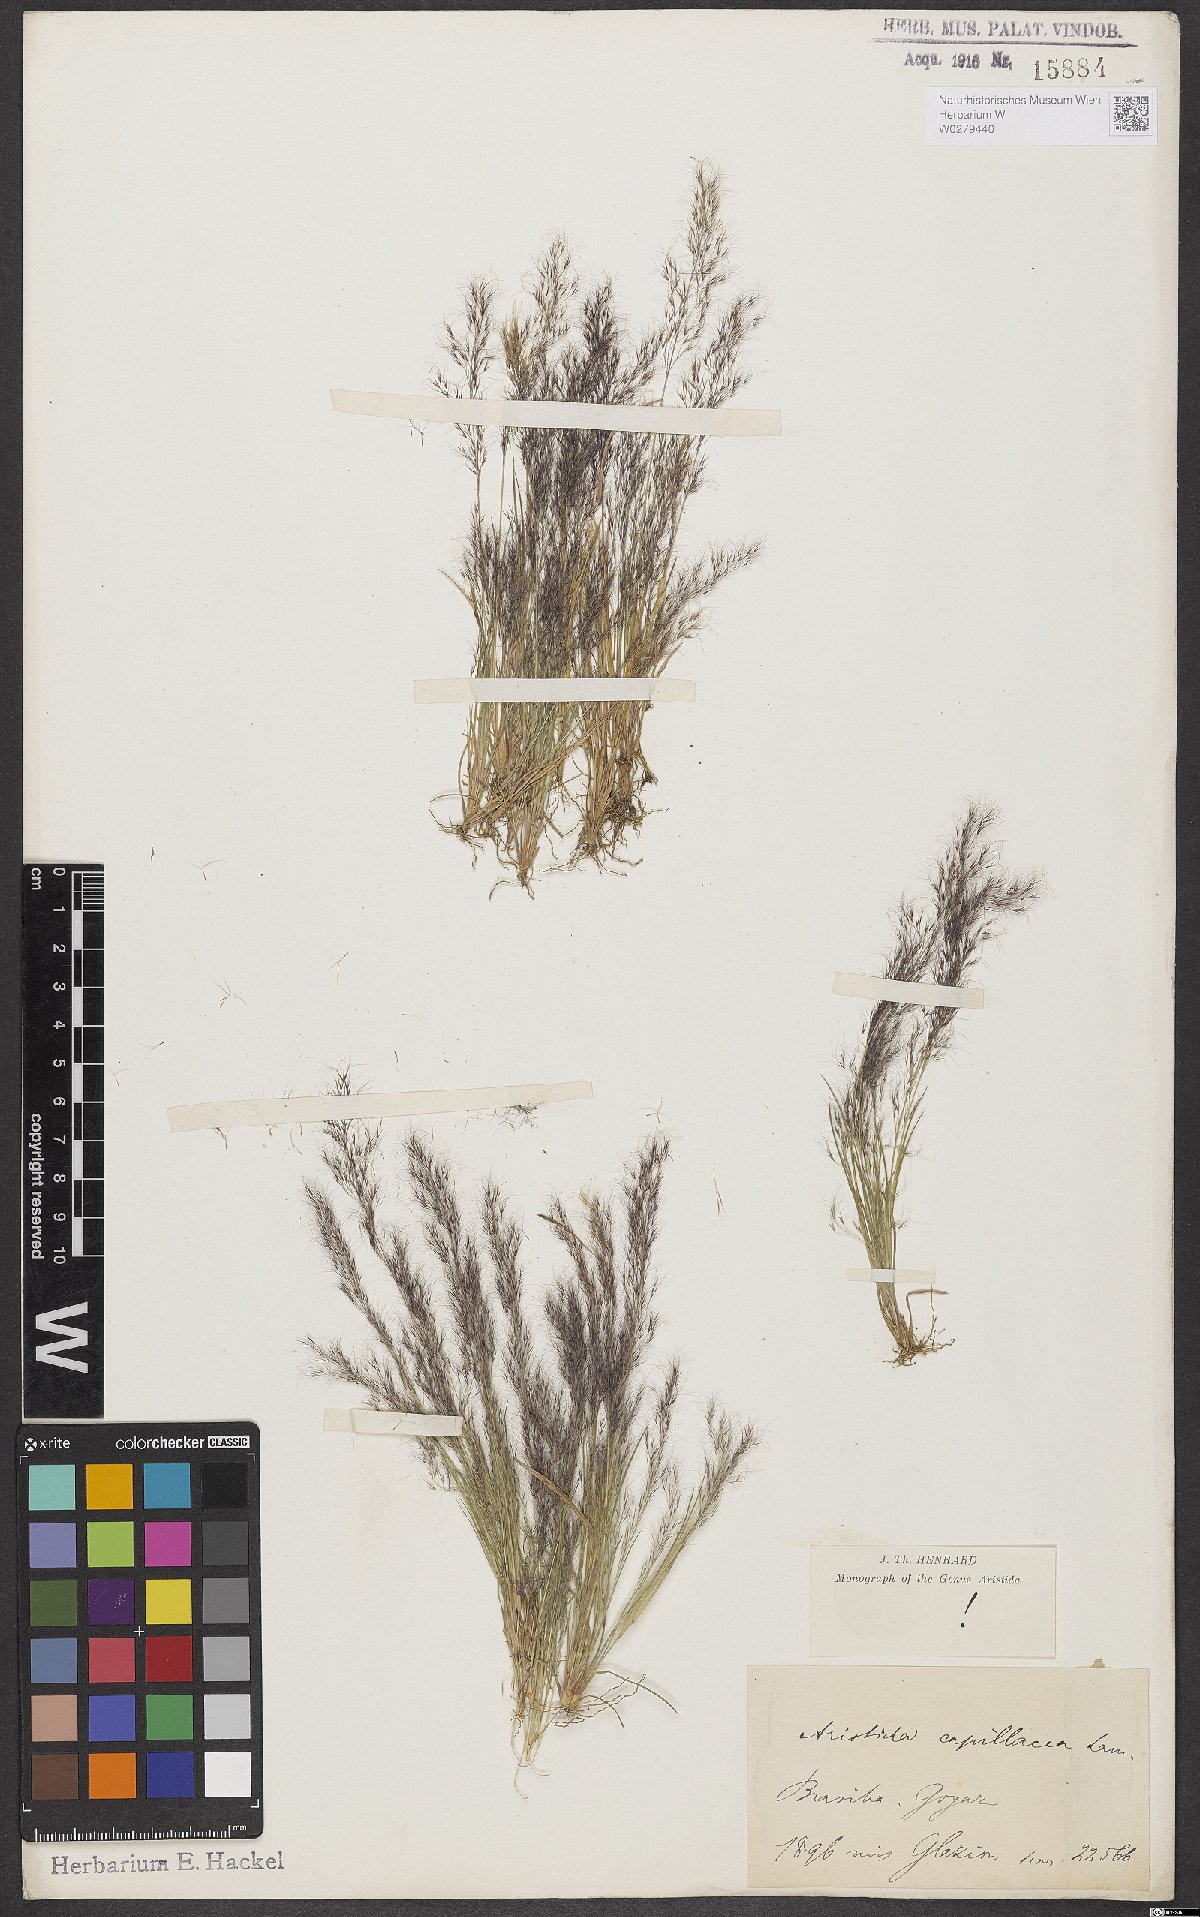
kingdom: Plantae
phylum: Tracheophyta
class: Liliopsida
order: Poales
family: Poaceae
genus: Aristida
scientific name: Aristida capillacea
